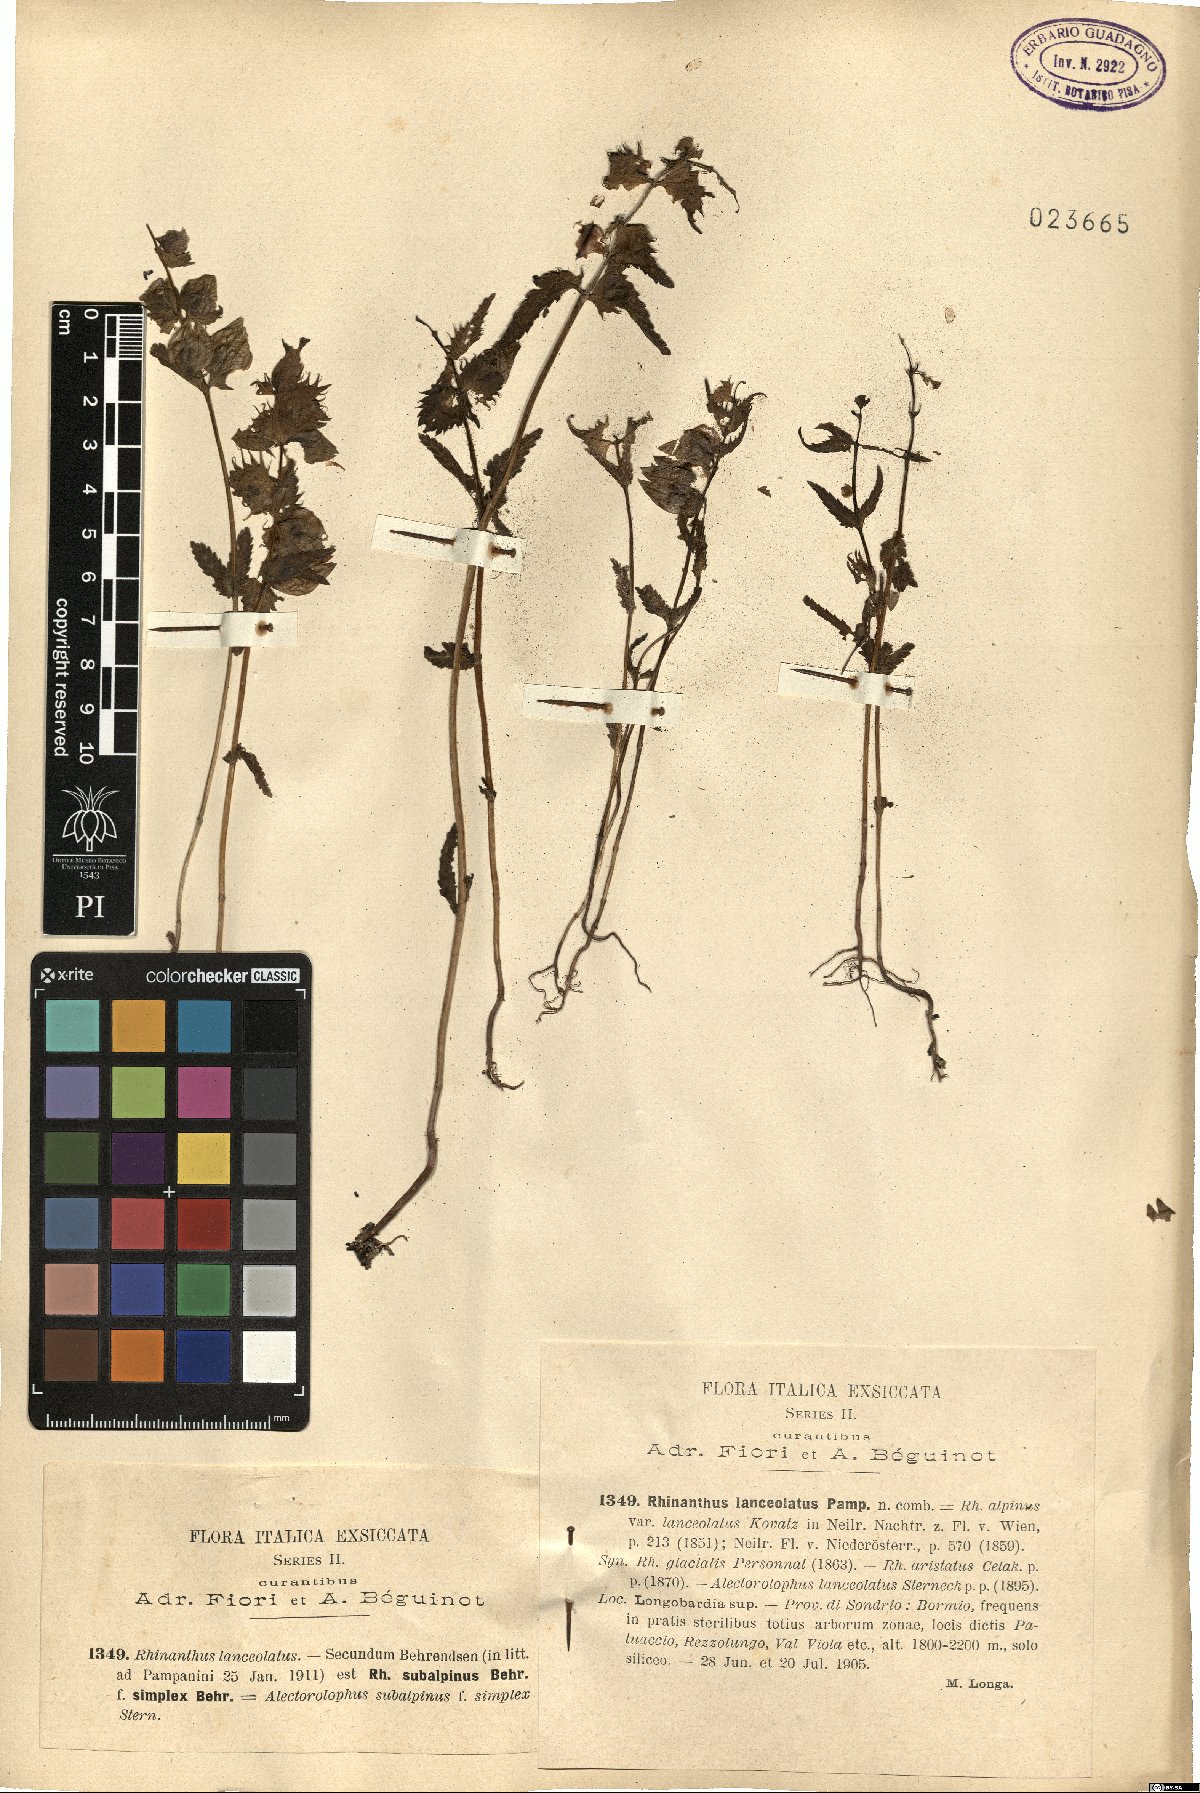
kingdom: Plantae
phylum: Tracheophyta
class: Magnoliopsida
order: Lamiales
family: Orobanchaceae
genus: Rhinanthus
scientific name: Rhinanthus glacialis
